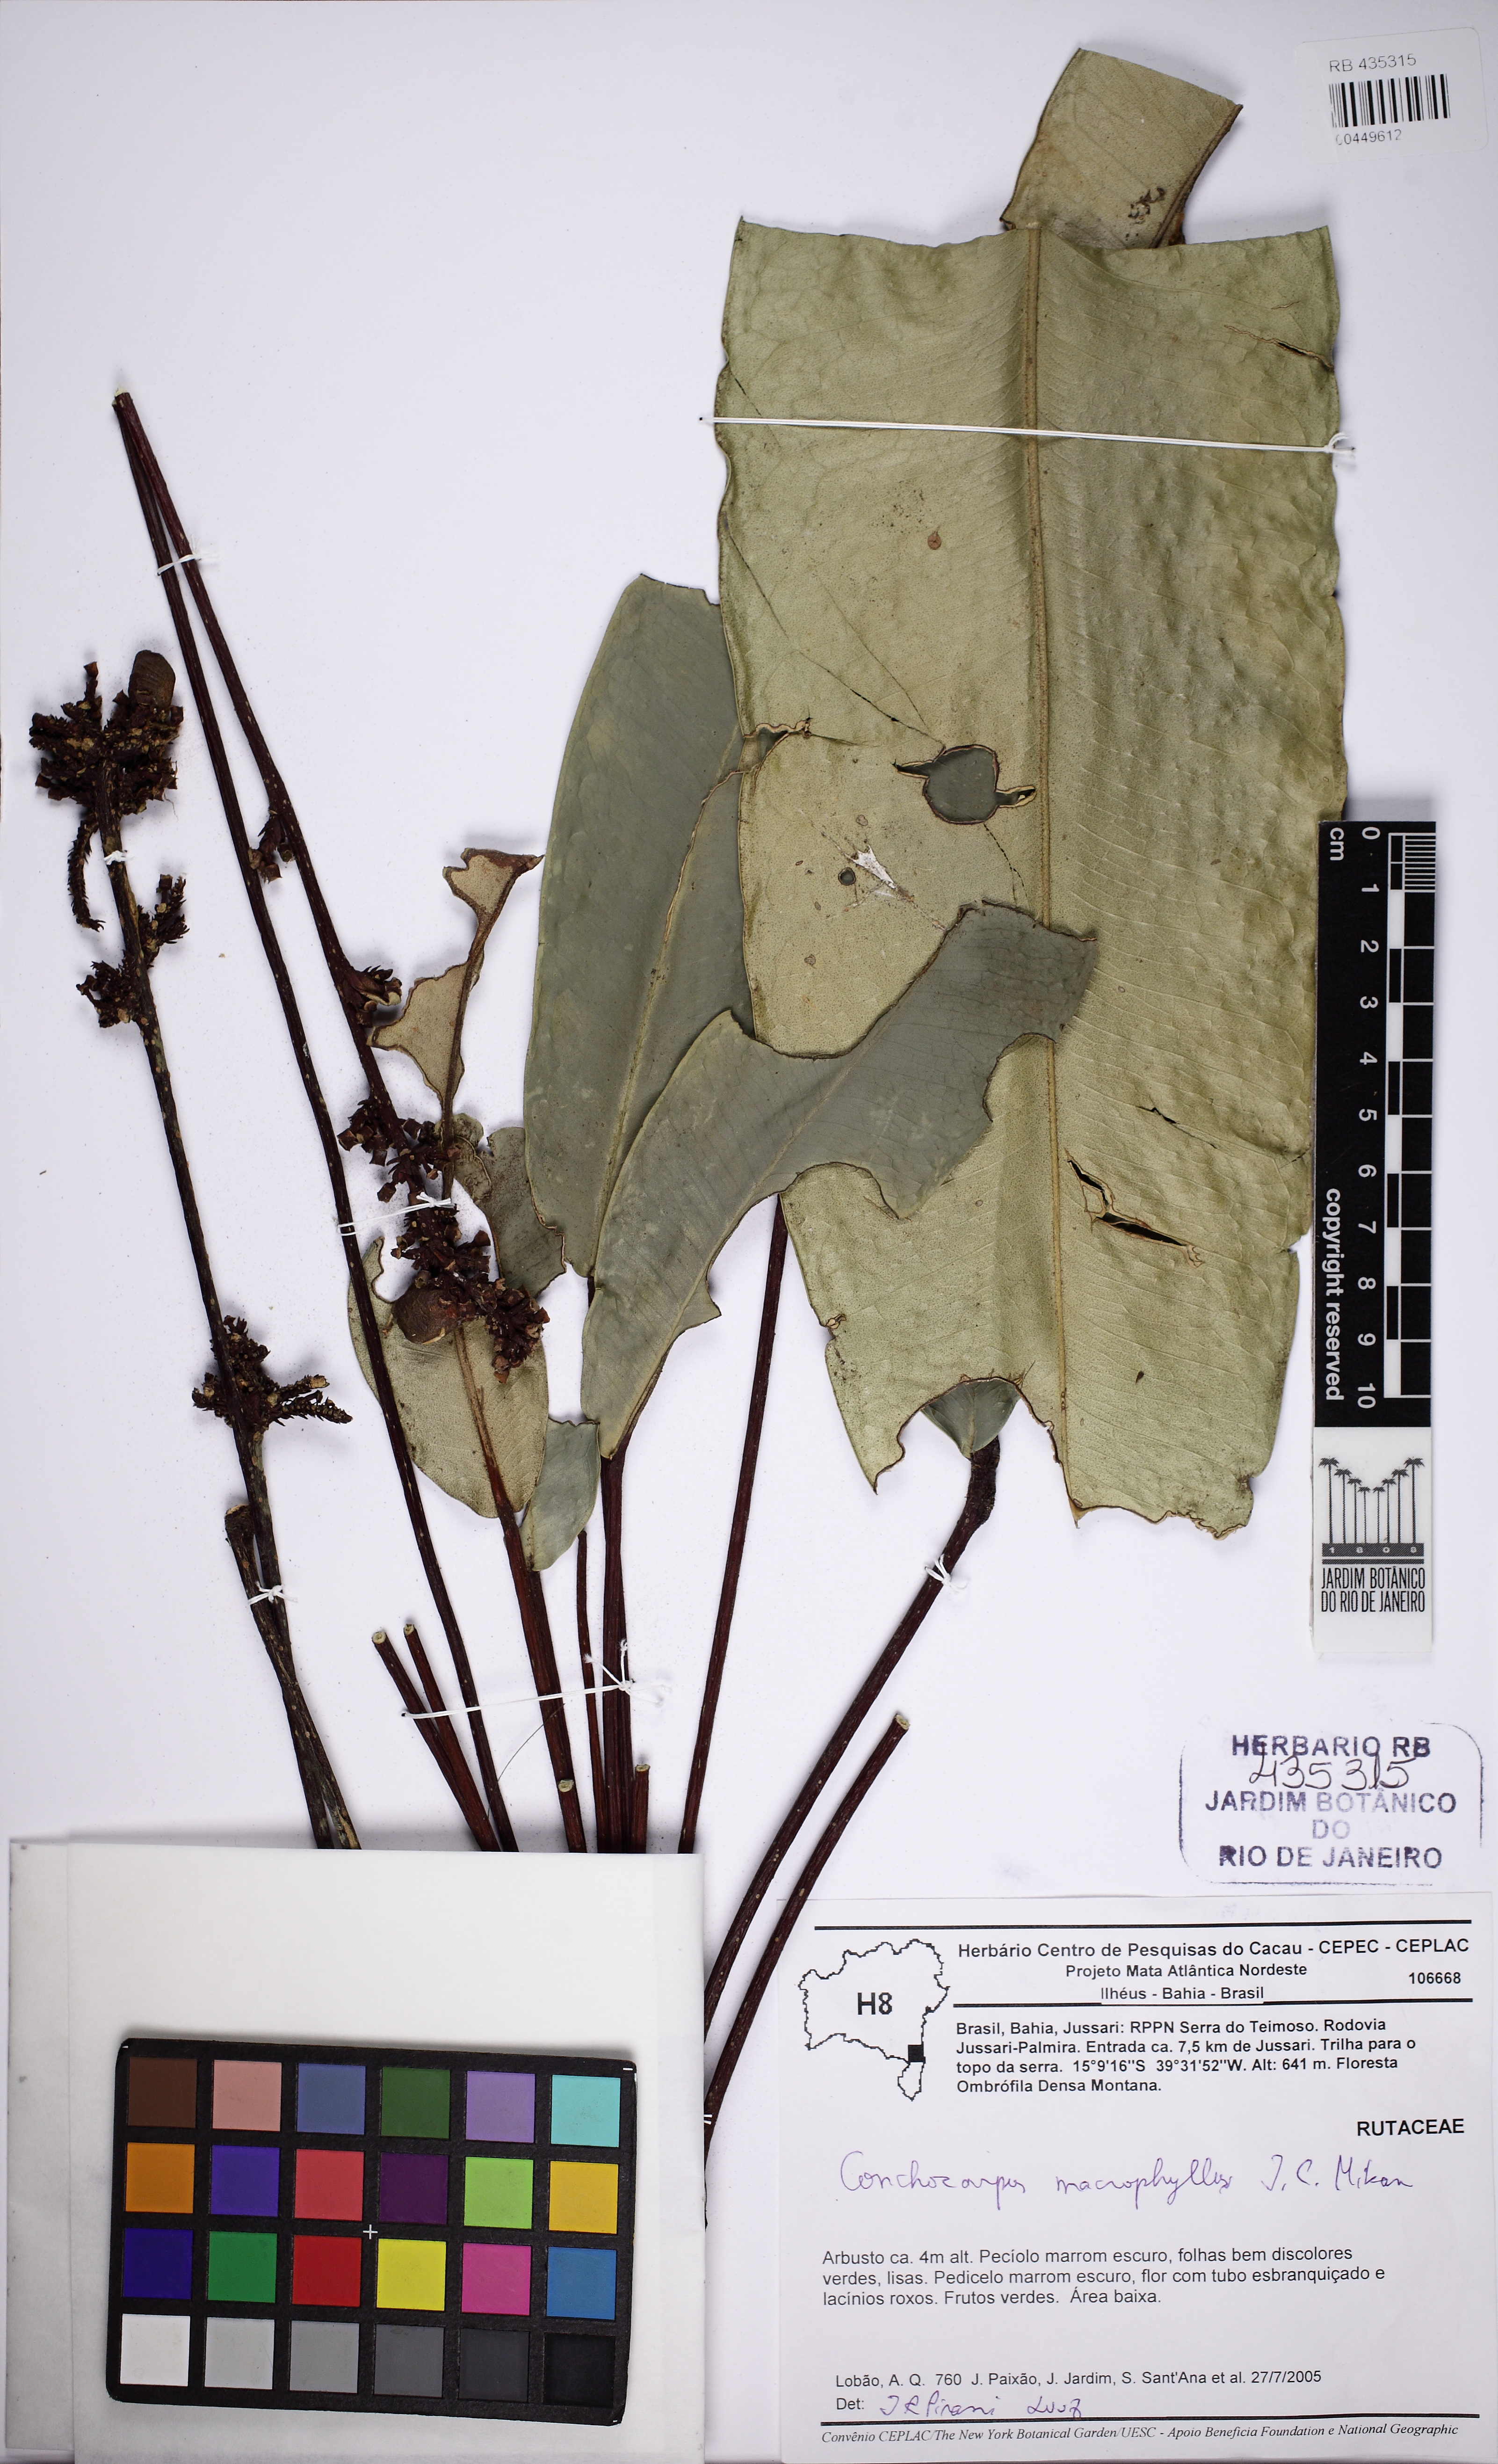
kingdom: Plantae
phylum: Tracheophyta
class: Magnoliopsida
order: Sapindales
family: Rutaceae
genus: Conchocarpus
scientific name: Conchocarpus macrophyllus
